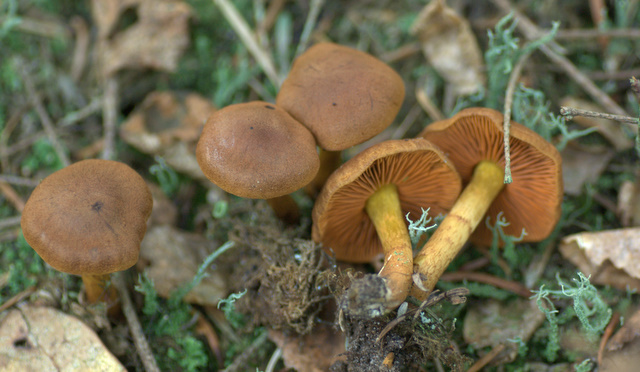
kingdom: Fungi
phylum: Basidiomycota
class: Agaricomycetes
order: Agaricales
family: Cortinariaceae
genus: Cortinarius
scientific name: Cortinarius cinnamomeus
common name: kanel-slørhat
